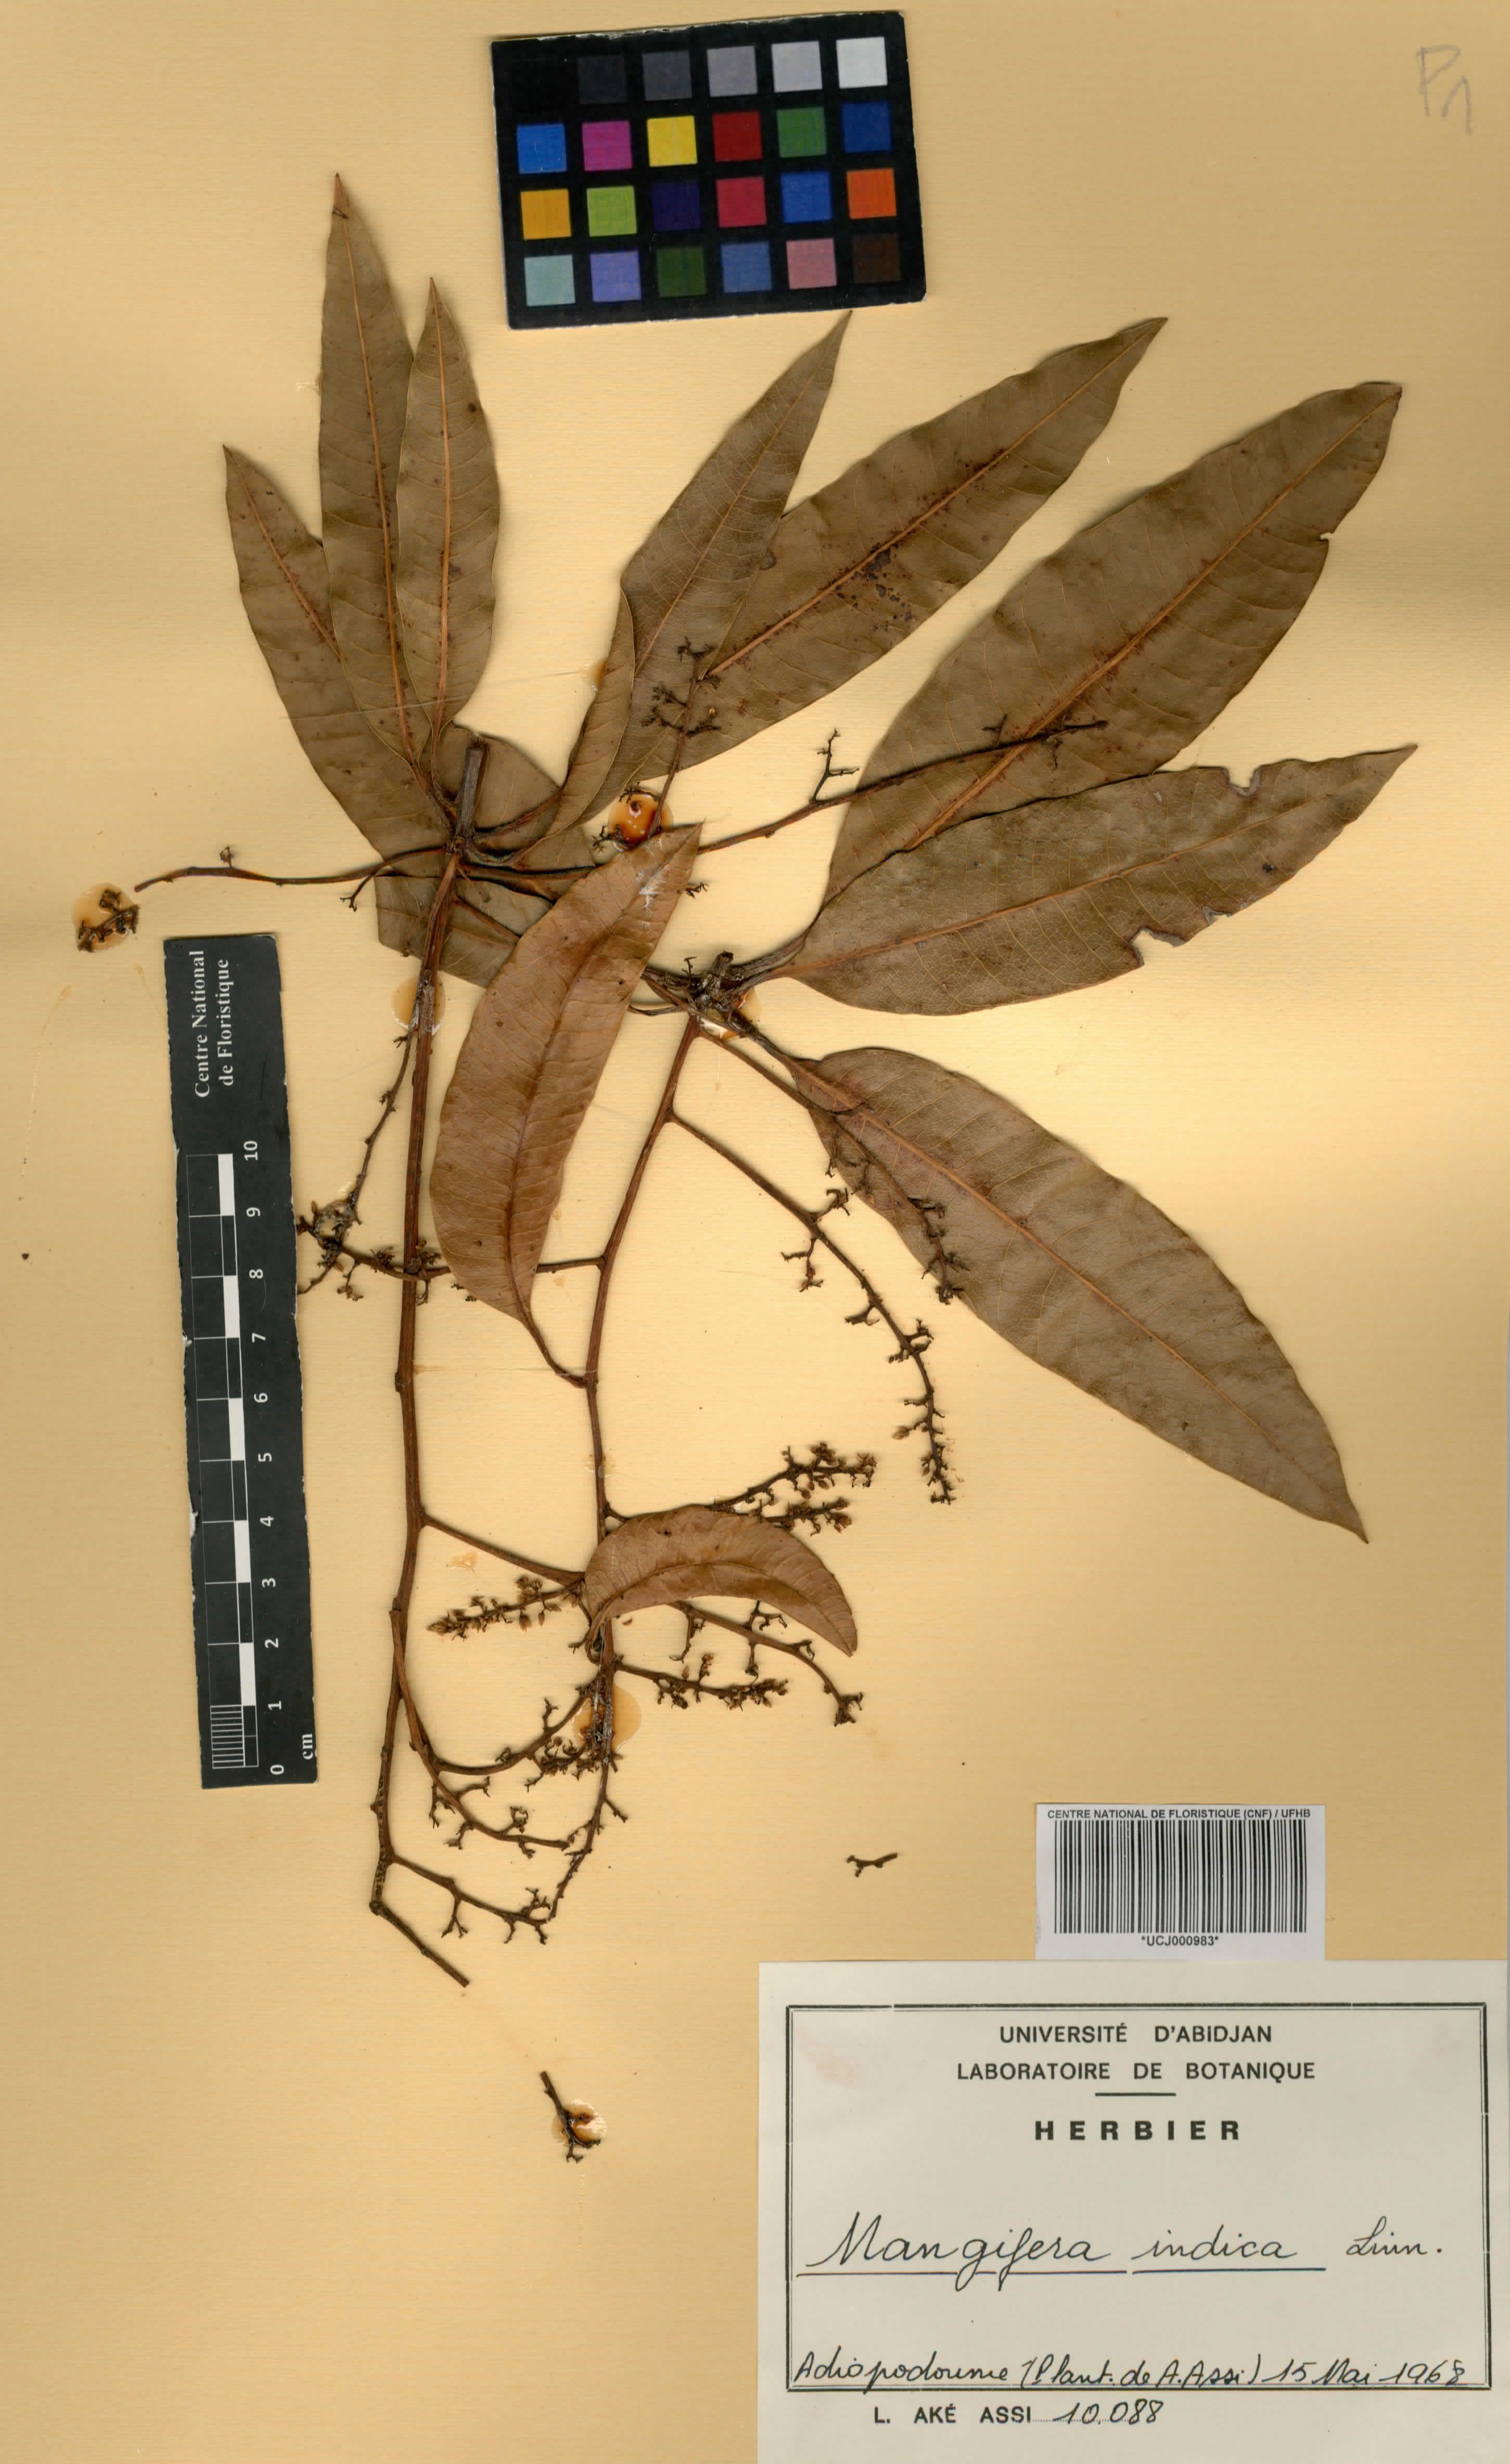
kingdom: Plantae
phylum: Tracheophyta
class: Magnoliopsida
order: Sapindales
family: Anacardiaceae
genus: Mangifera
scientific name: Mangifera indica
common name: Mango
